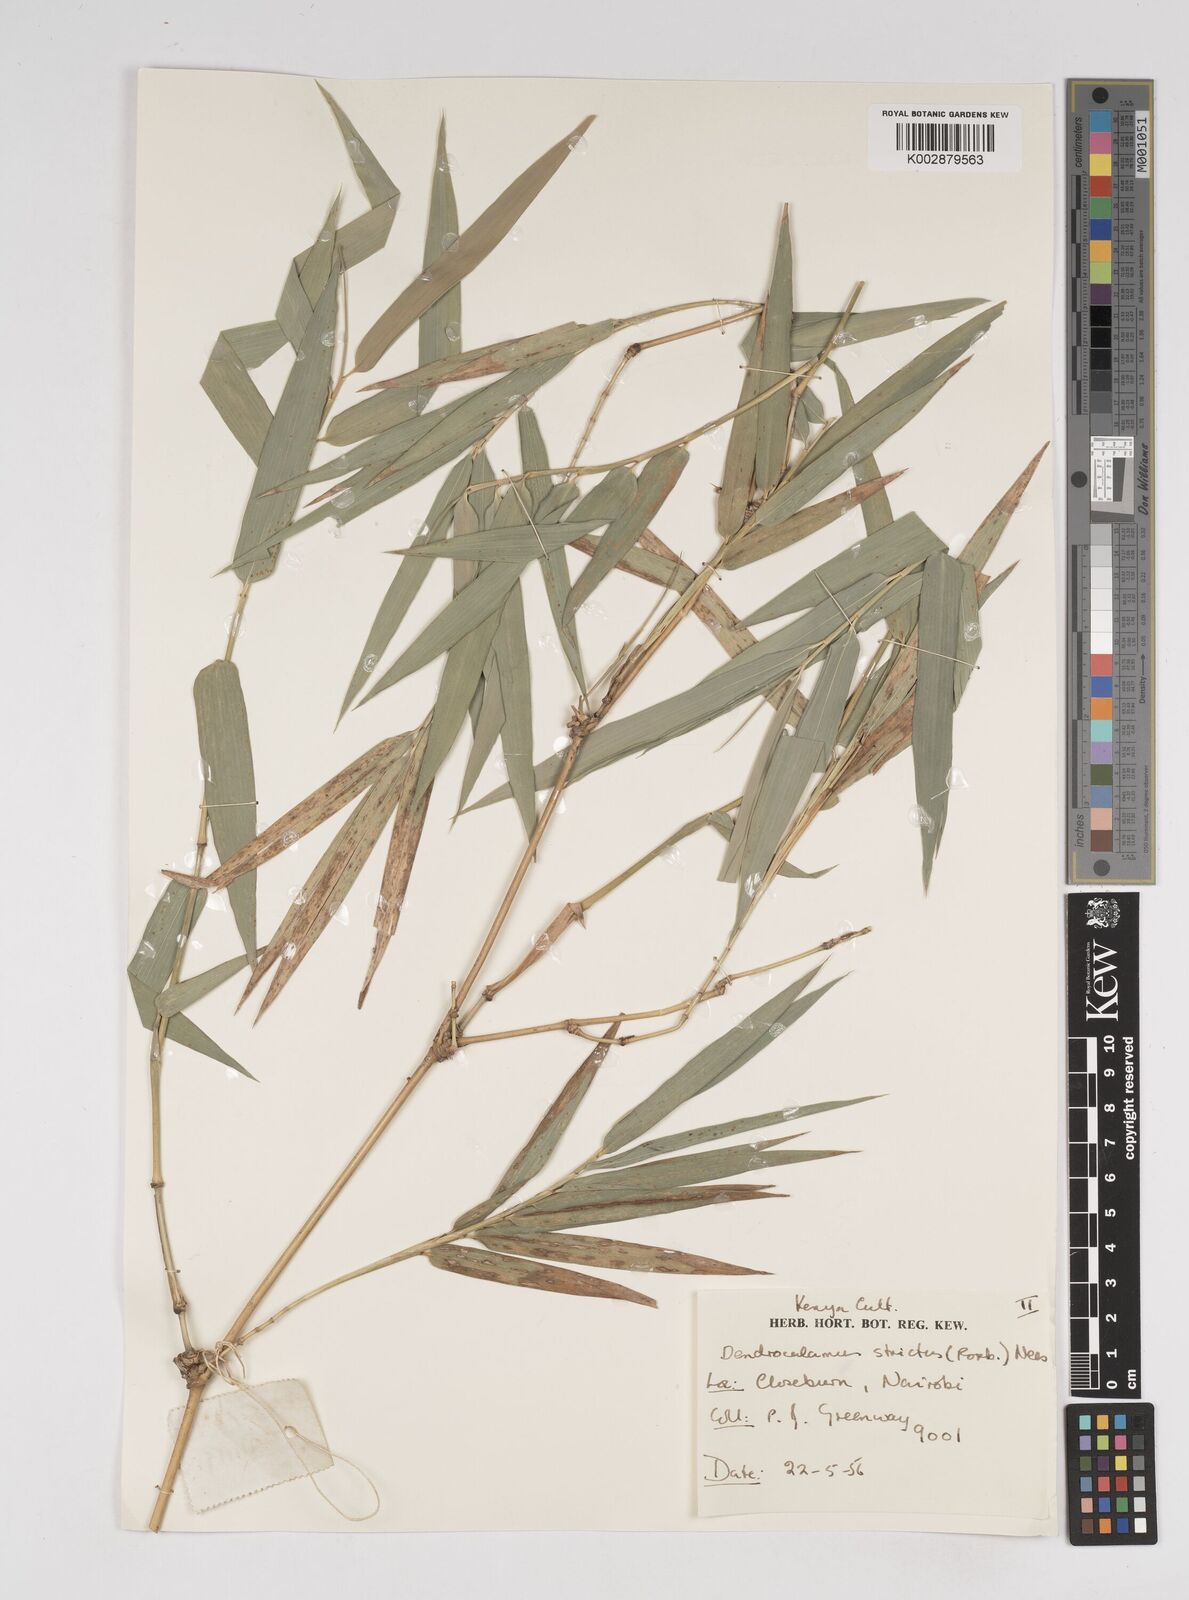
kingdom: Plantae
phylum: Tracheophyta
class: Liliopsida
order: Poales
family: Poaceae
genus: Dendrocalamus
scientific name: Dendrocalamus strictus
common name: Male bamboo
